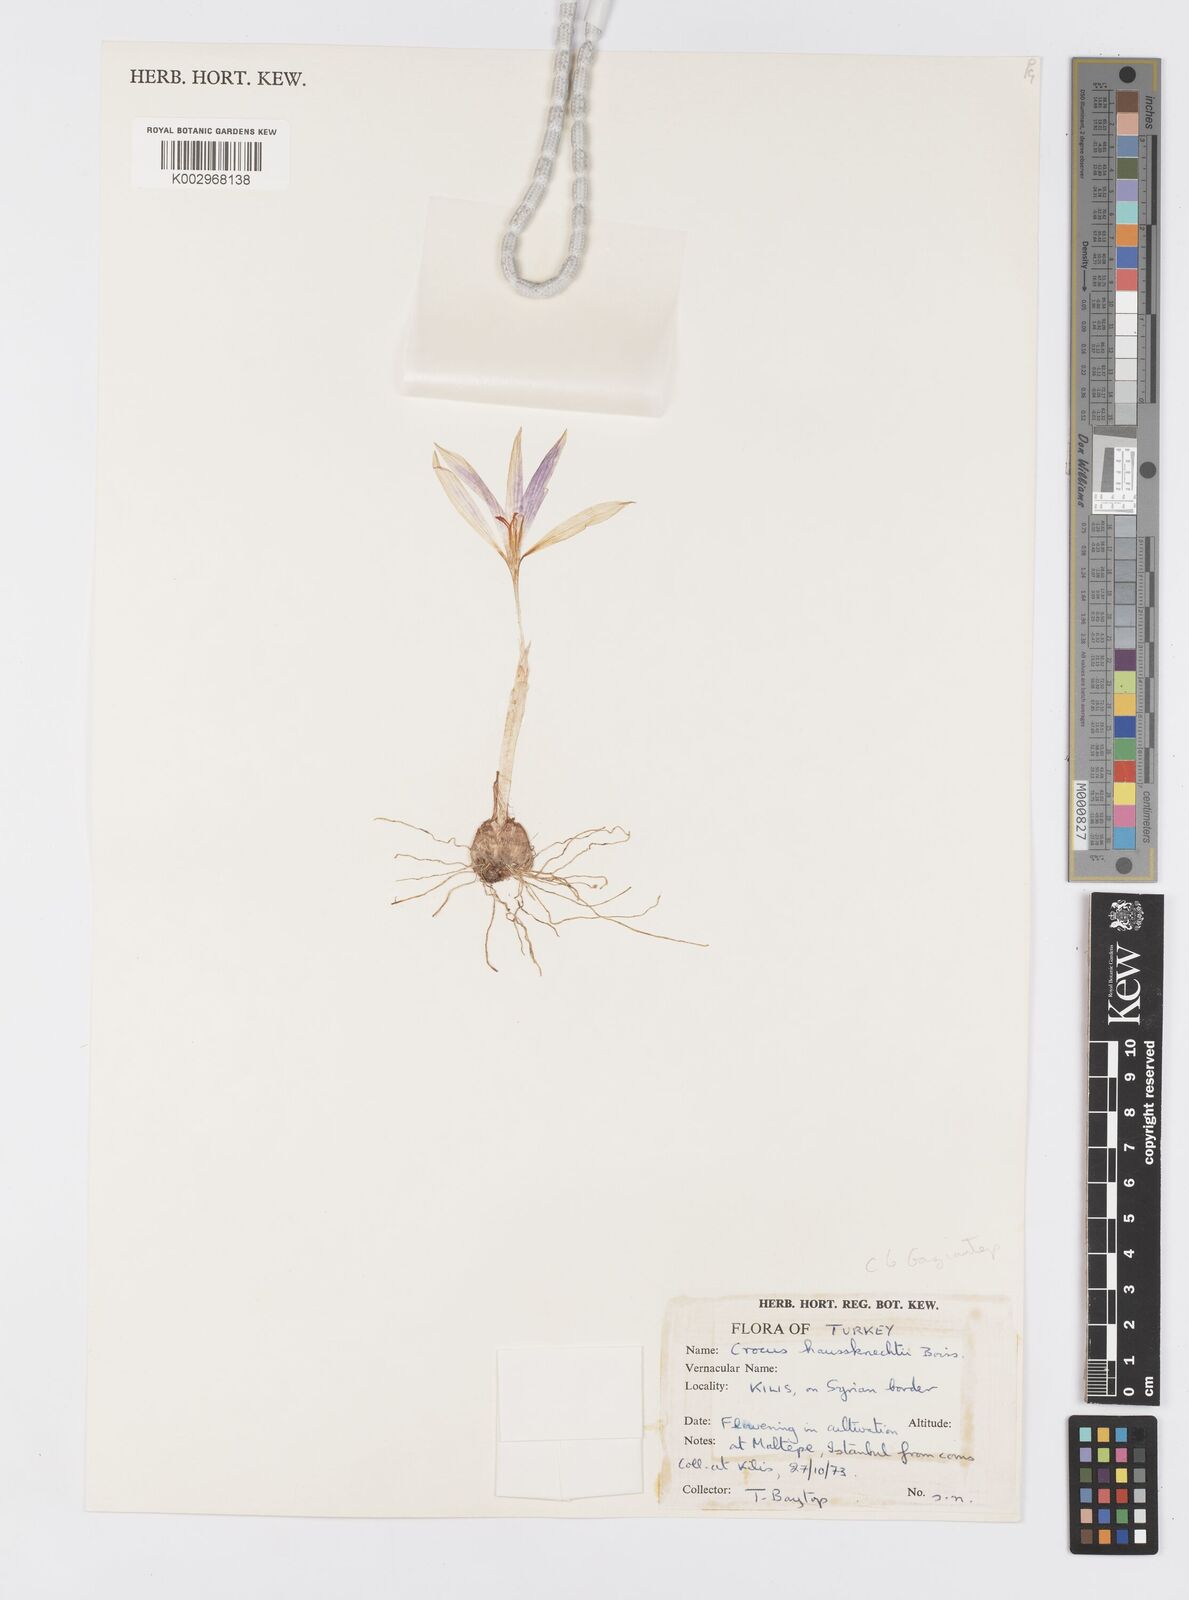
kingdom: Plantae
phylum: Tracheophyta
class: Liliopsida
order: Asparagales
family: Iridaceae
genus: Crocus
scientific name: Crocus turcicus
